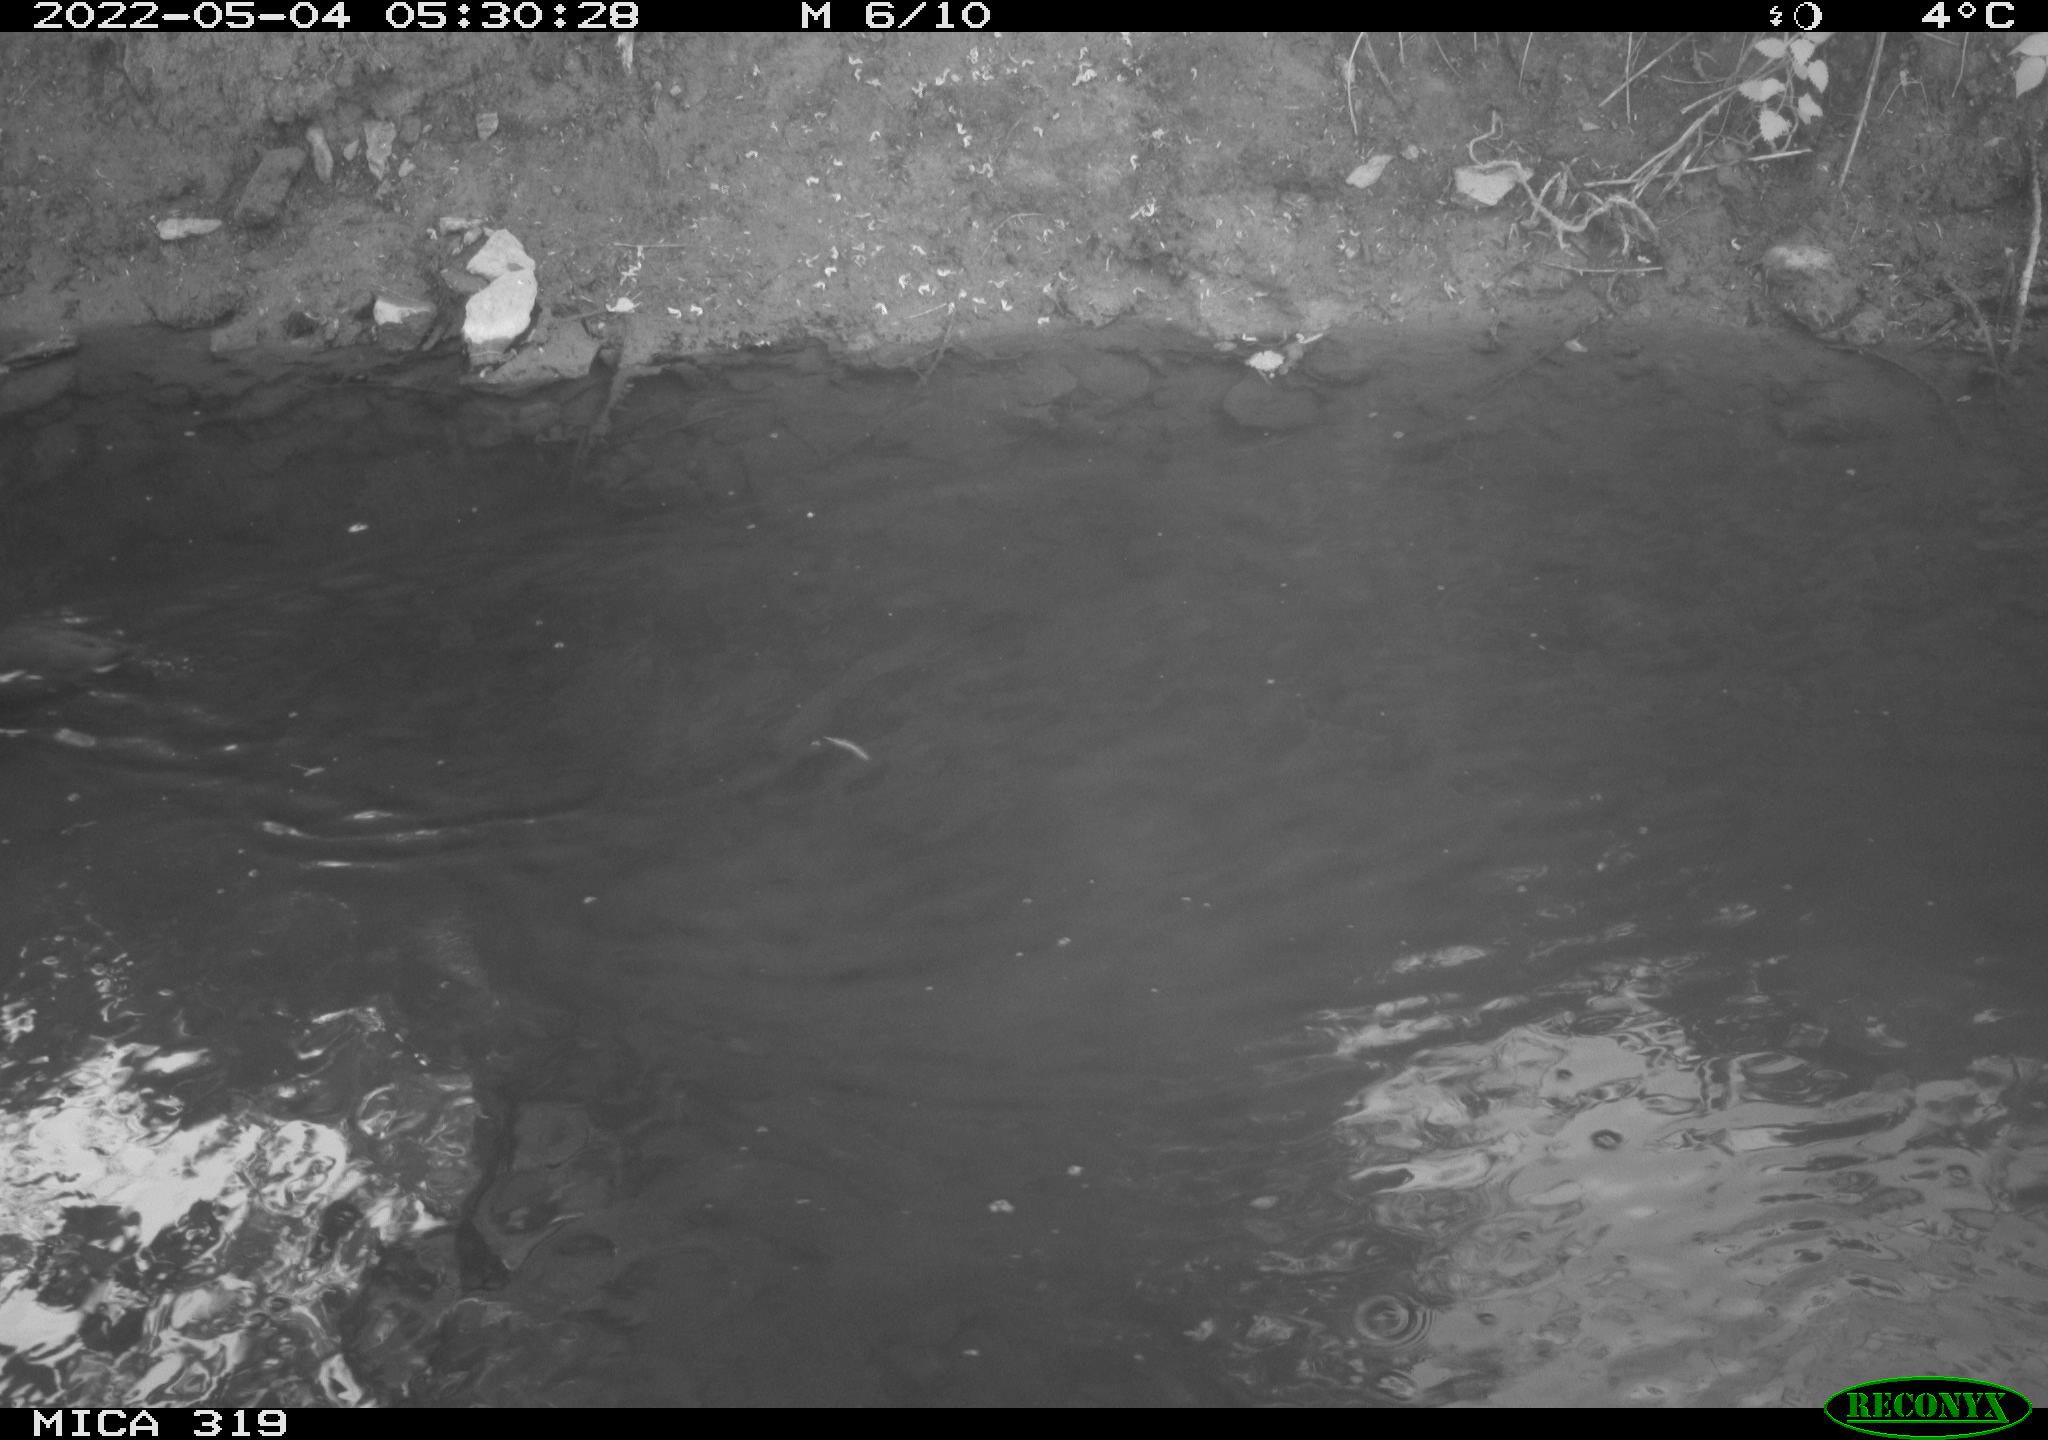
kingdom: Animalia
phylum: Chordata
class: Aves
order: Gruiformes
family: Rallidae
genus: Gallinula
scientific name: Gallinula chloropus
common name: Common moorhen
